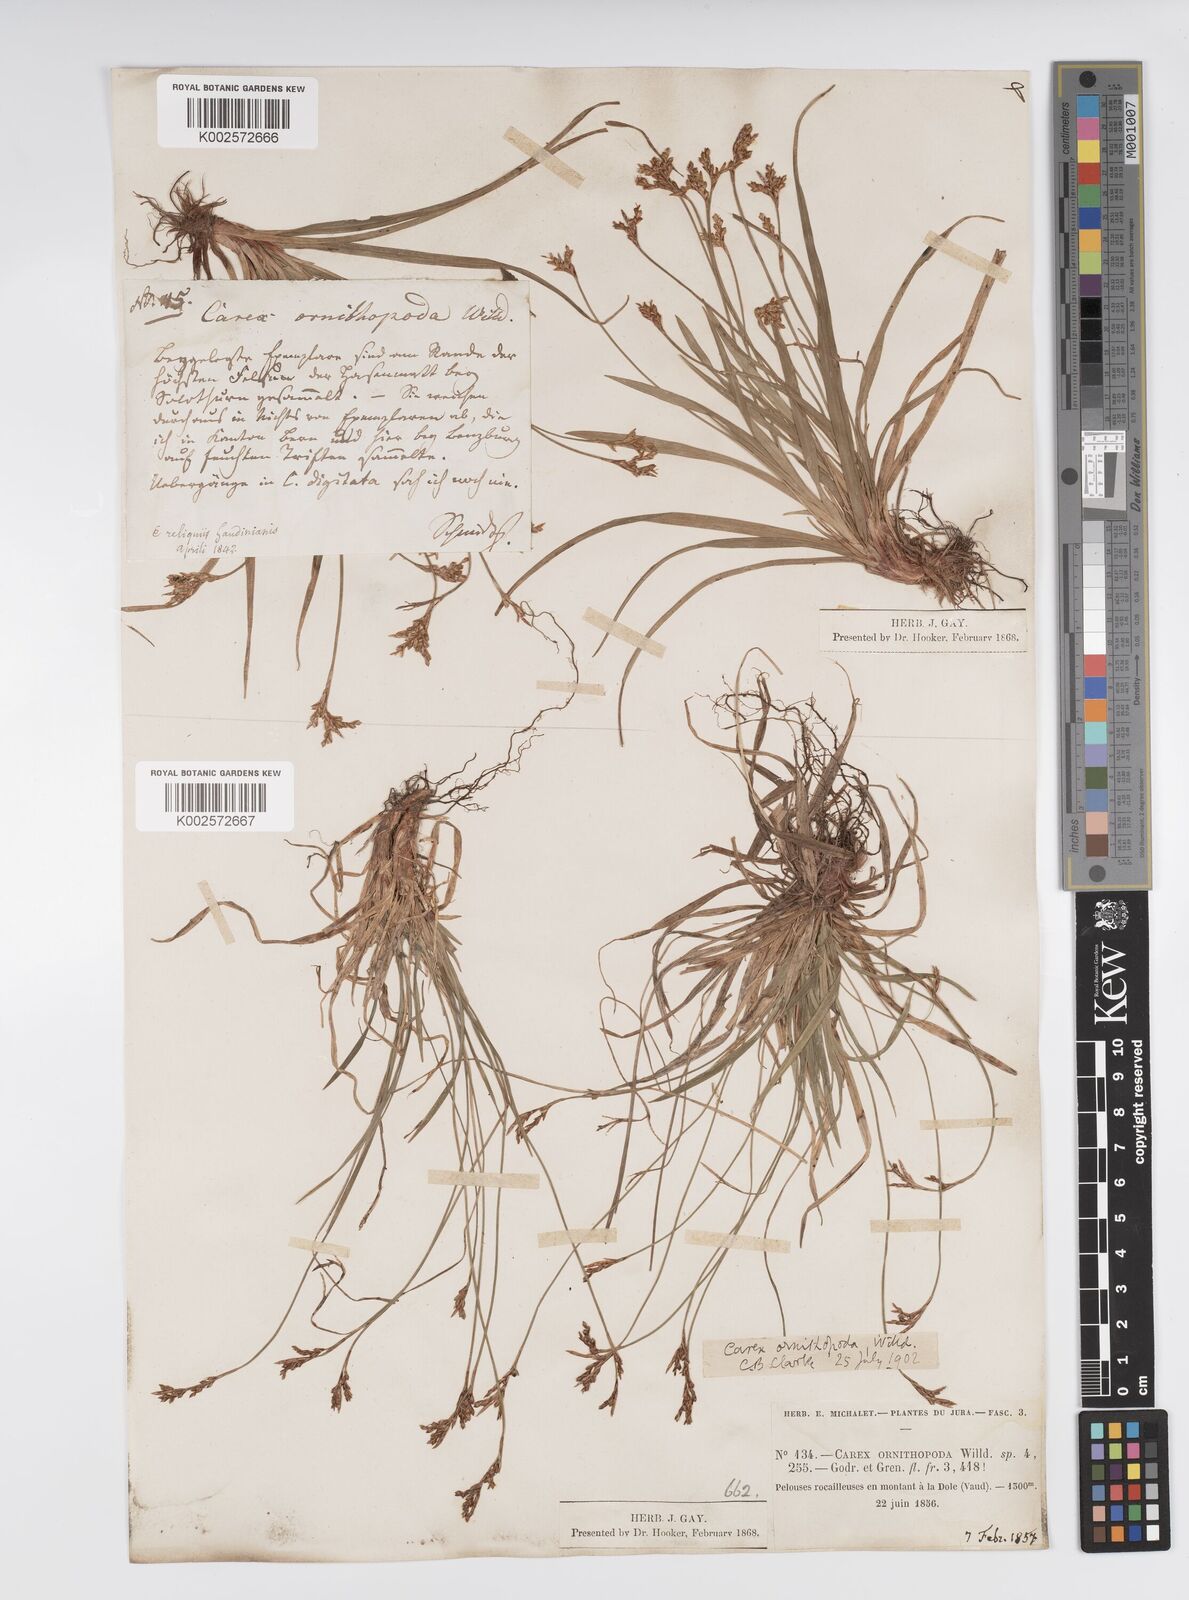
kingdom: Plantae
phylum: Tracheophyta
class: Liliopsida
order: Poales
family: Cyperaceae
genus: Carex
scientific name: Carex ornithopoda
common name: Bird's-foot sedge
